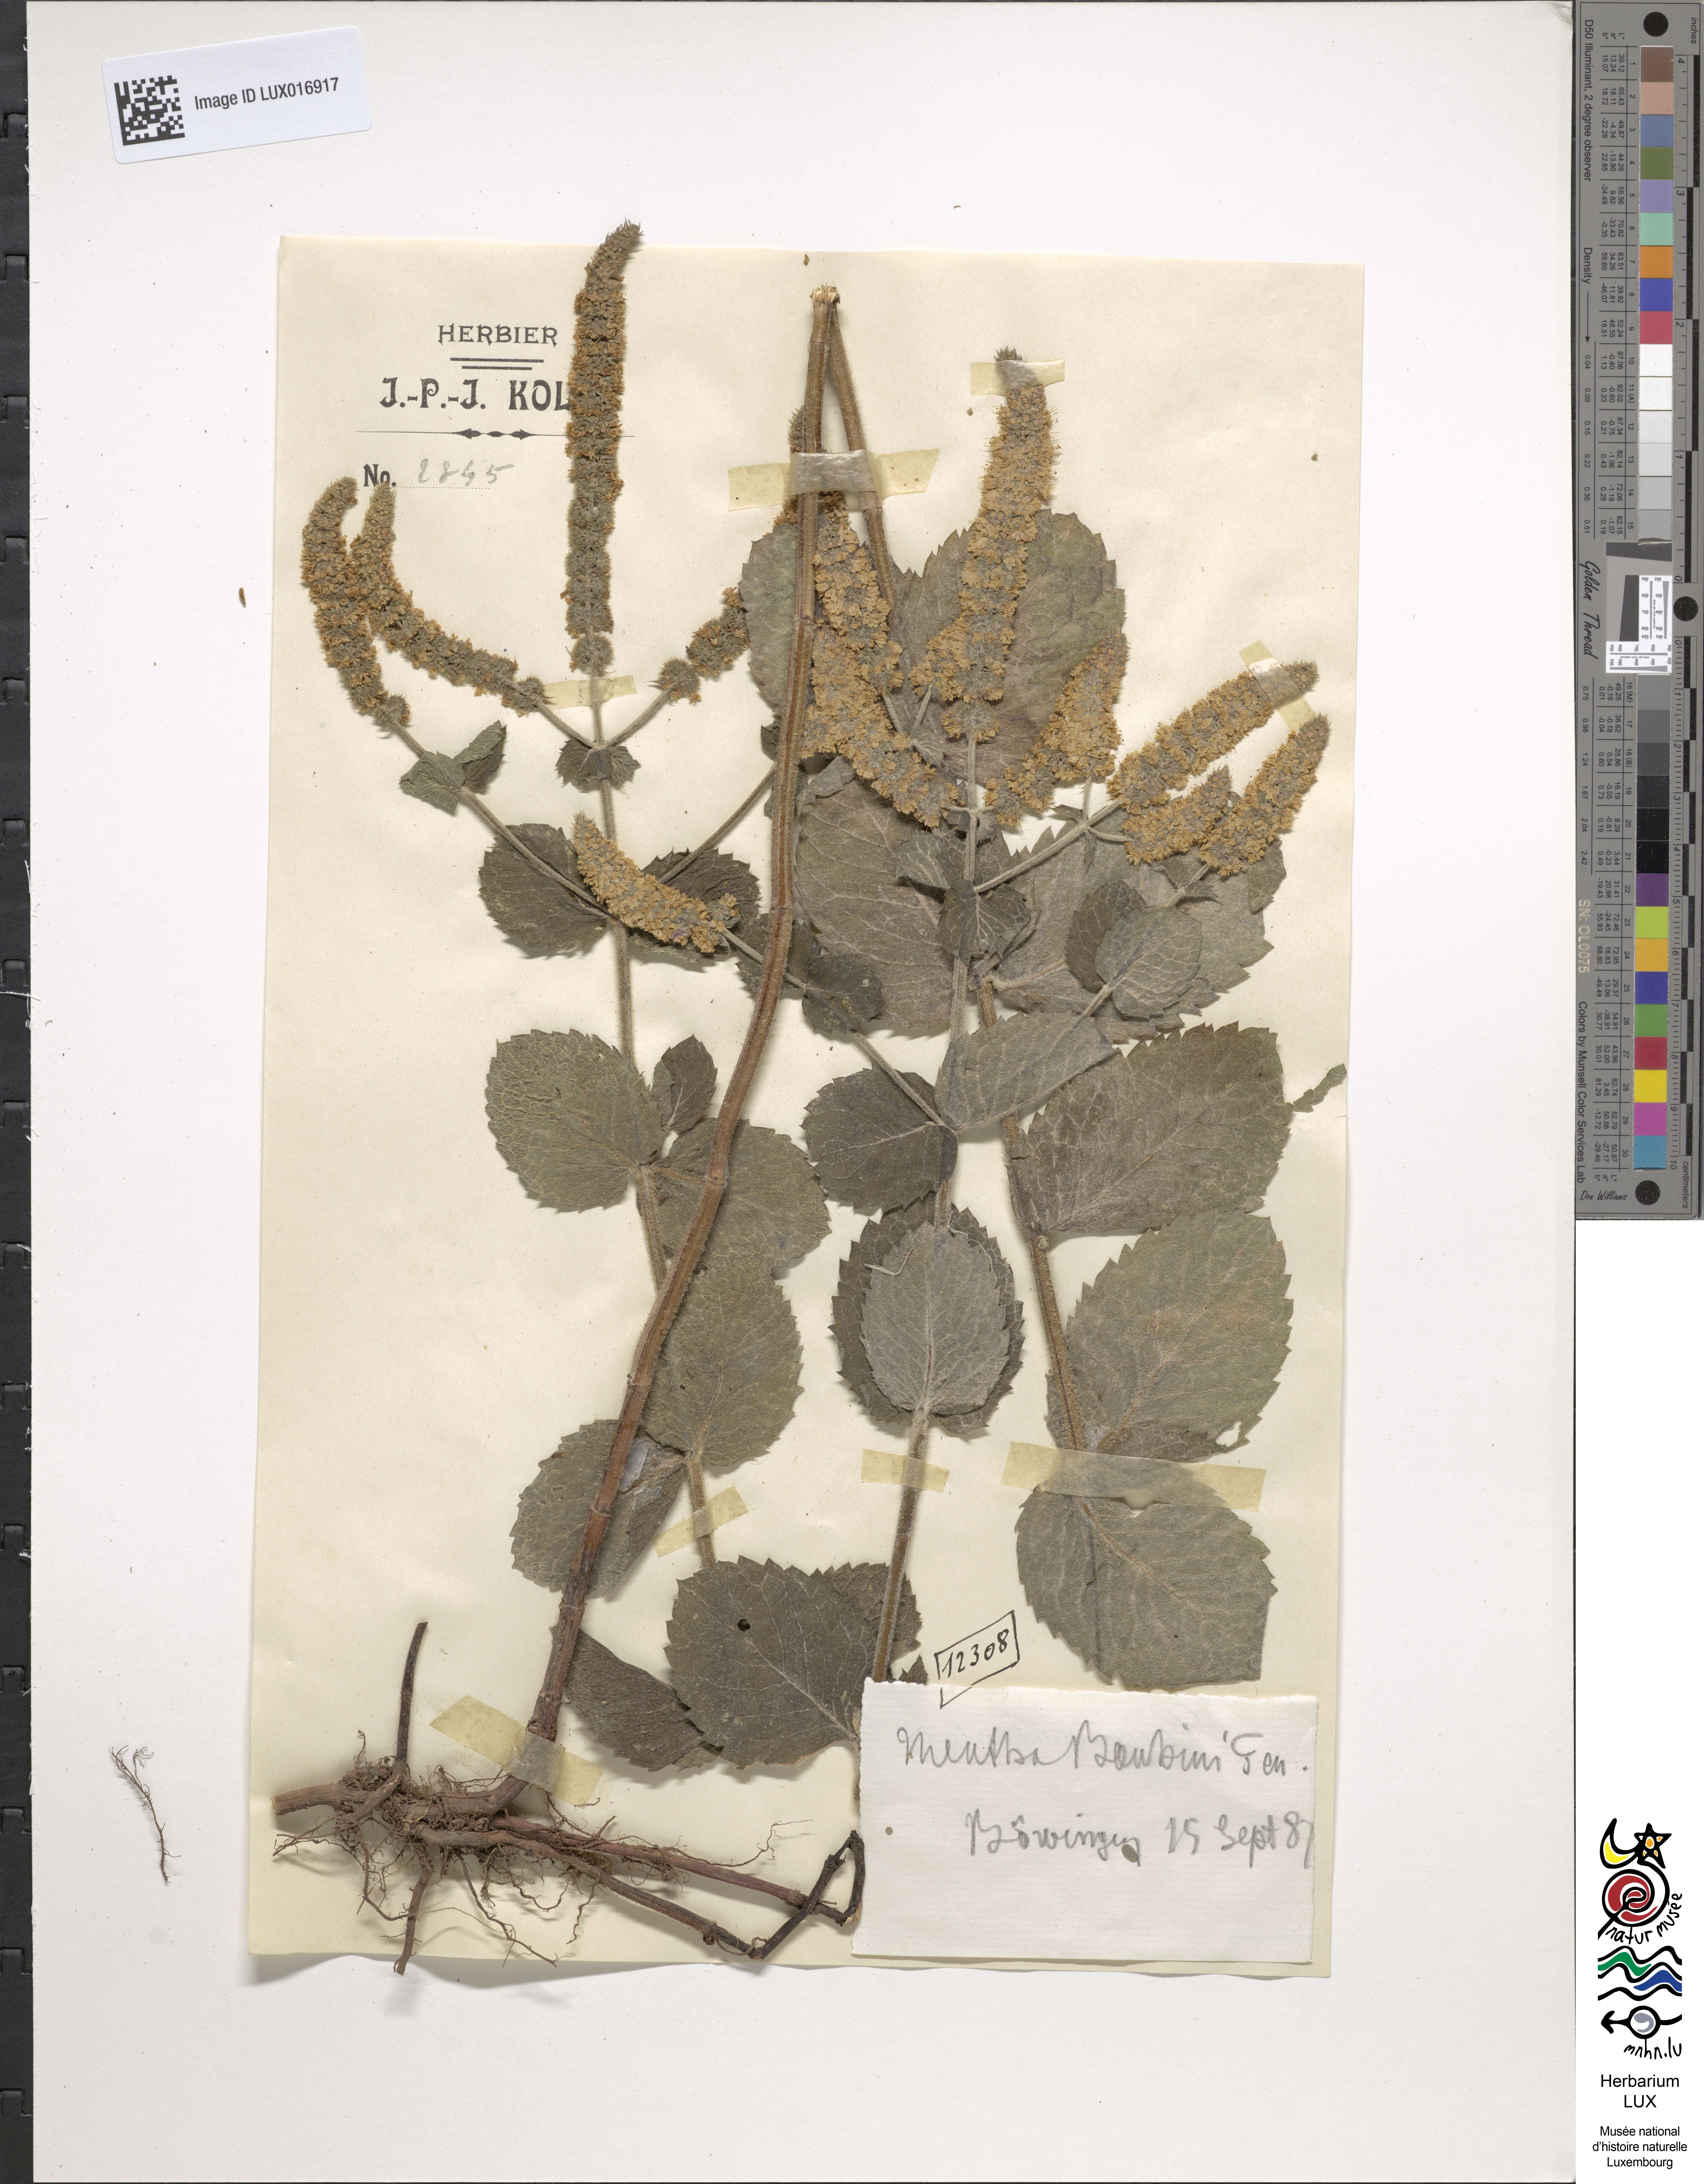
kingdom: Plantae
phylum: Tracheophyta
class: Magnoliopsida
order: Lamiales
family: Lamiaceae
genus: Mentha
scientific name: Mentha rotundifolia
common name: Bigleaf mint
